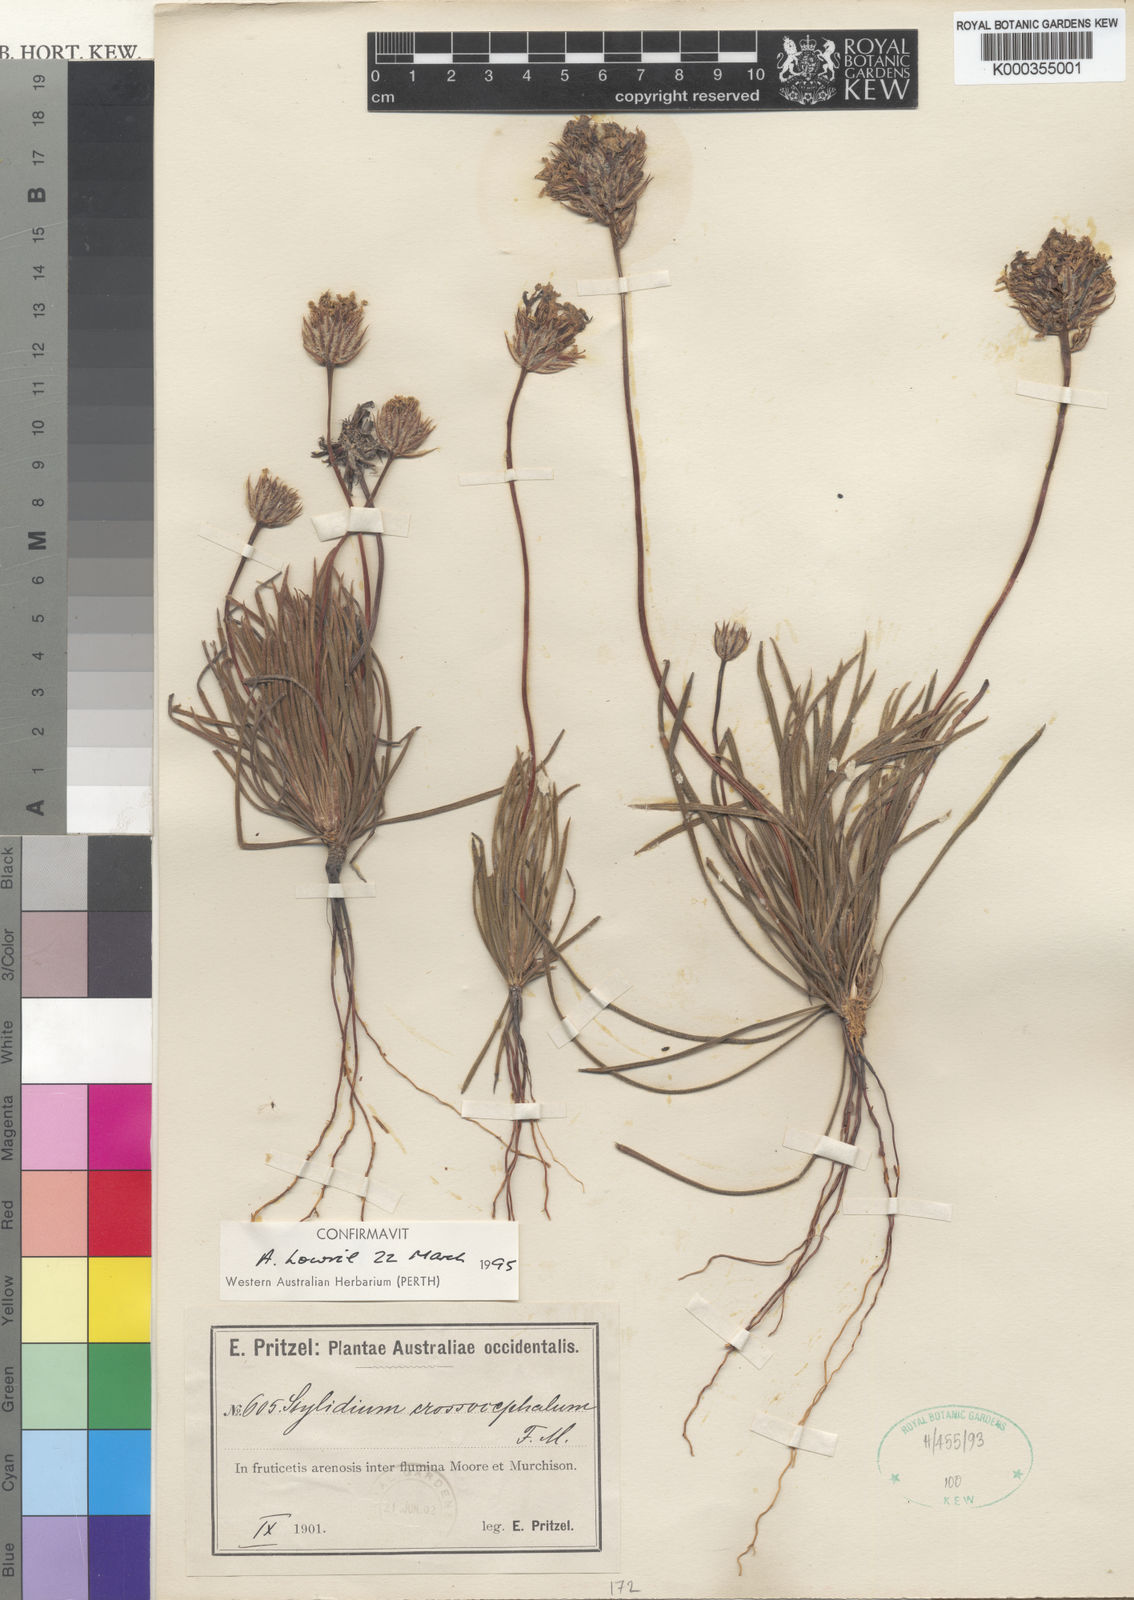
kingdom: Plantae
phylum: Tracheophyta
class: Magnoliopsida
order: Asterales
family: Stylidiaceae
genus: Stylidium
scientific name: Stylidium crossocephalum
